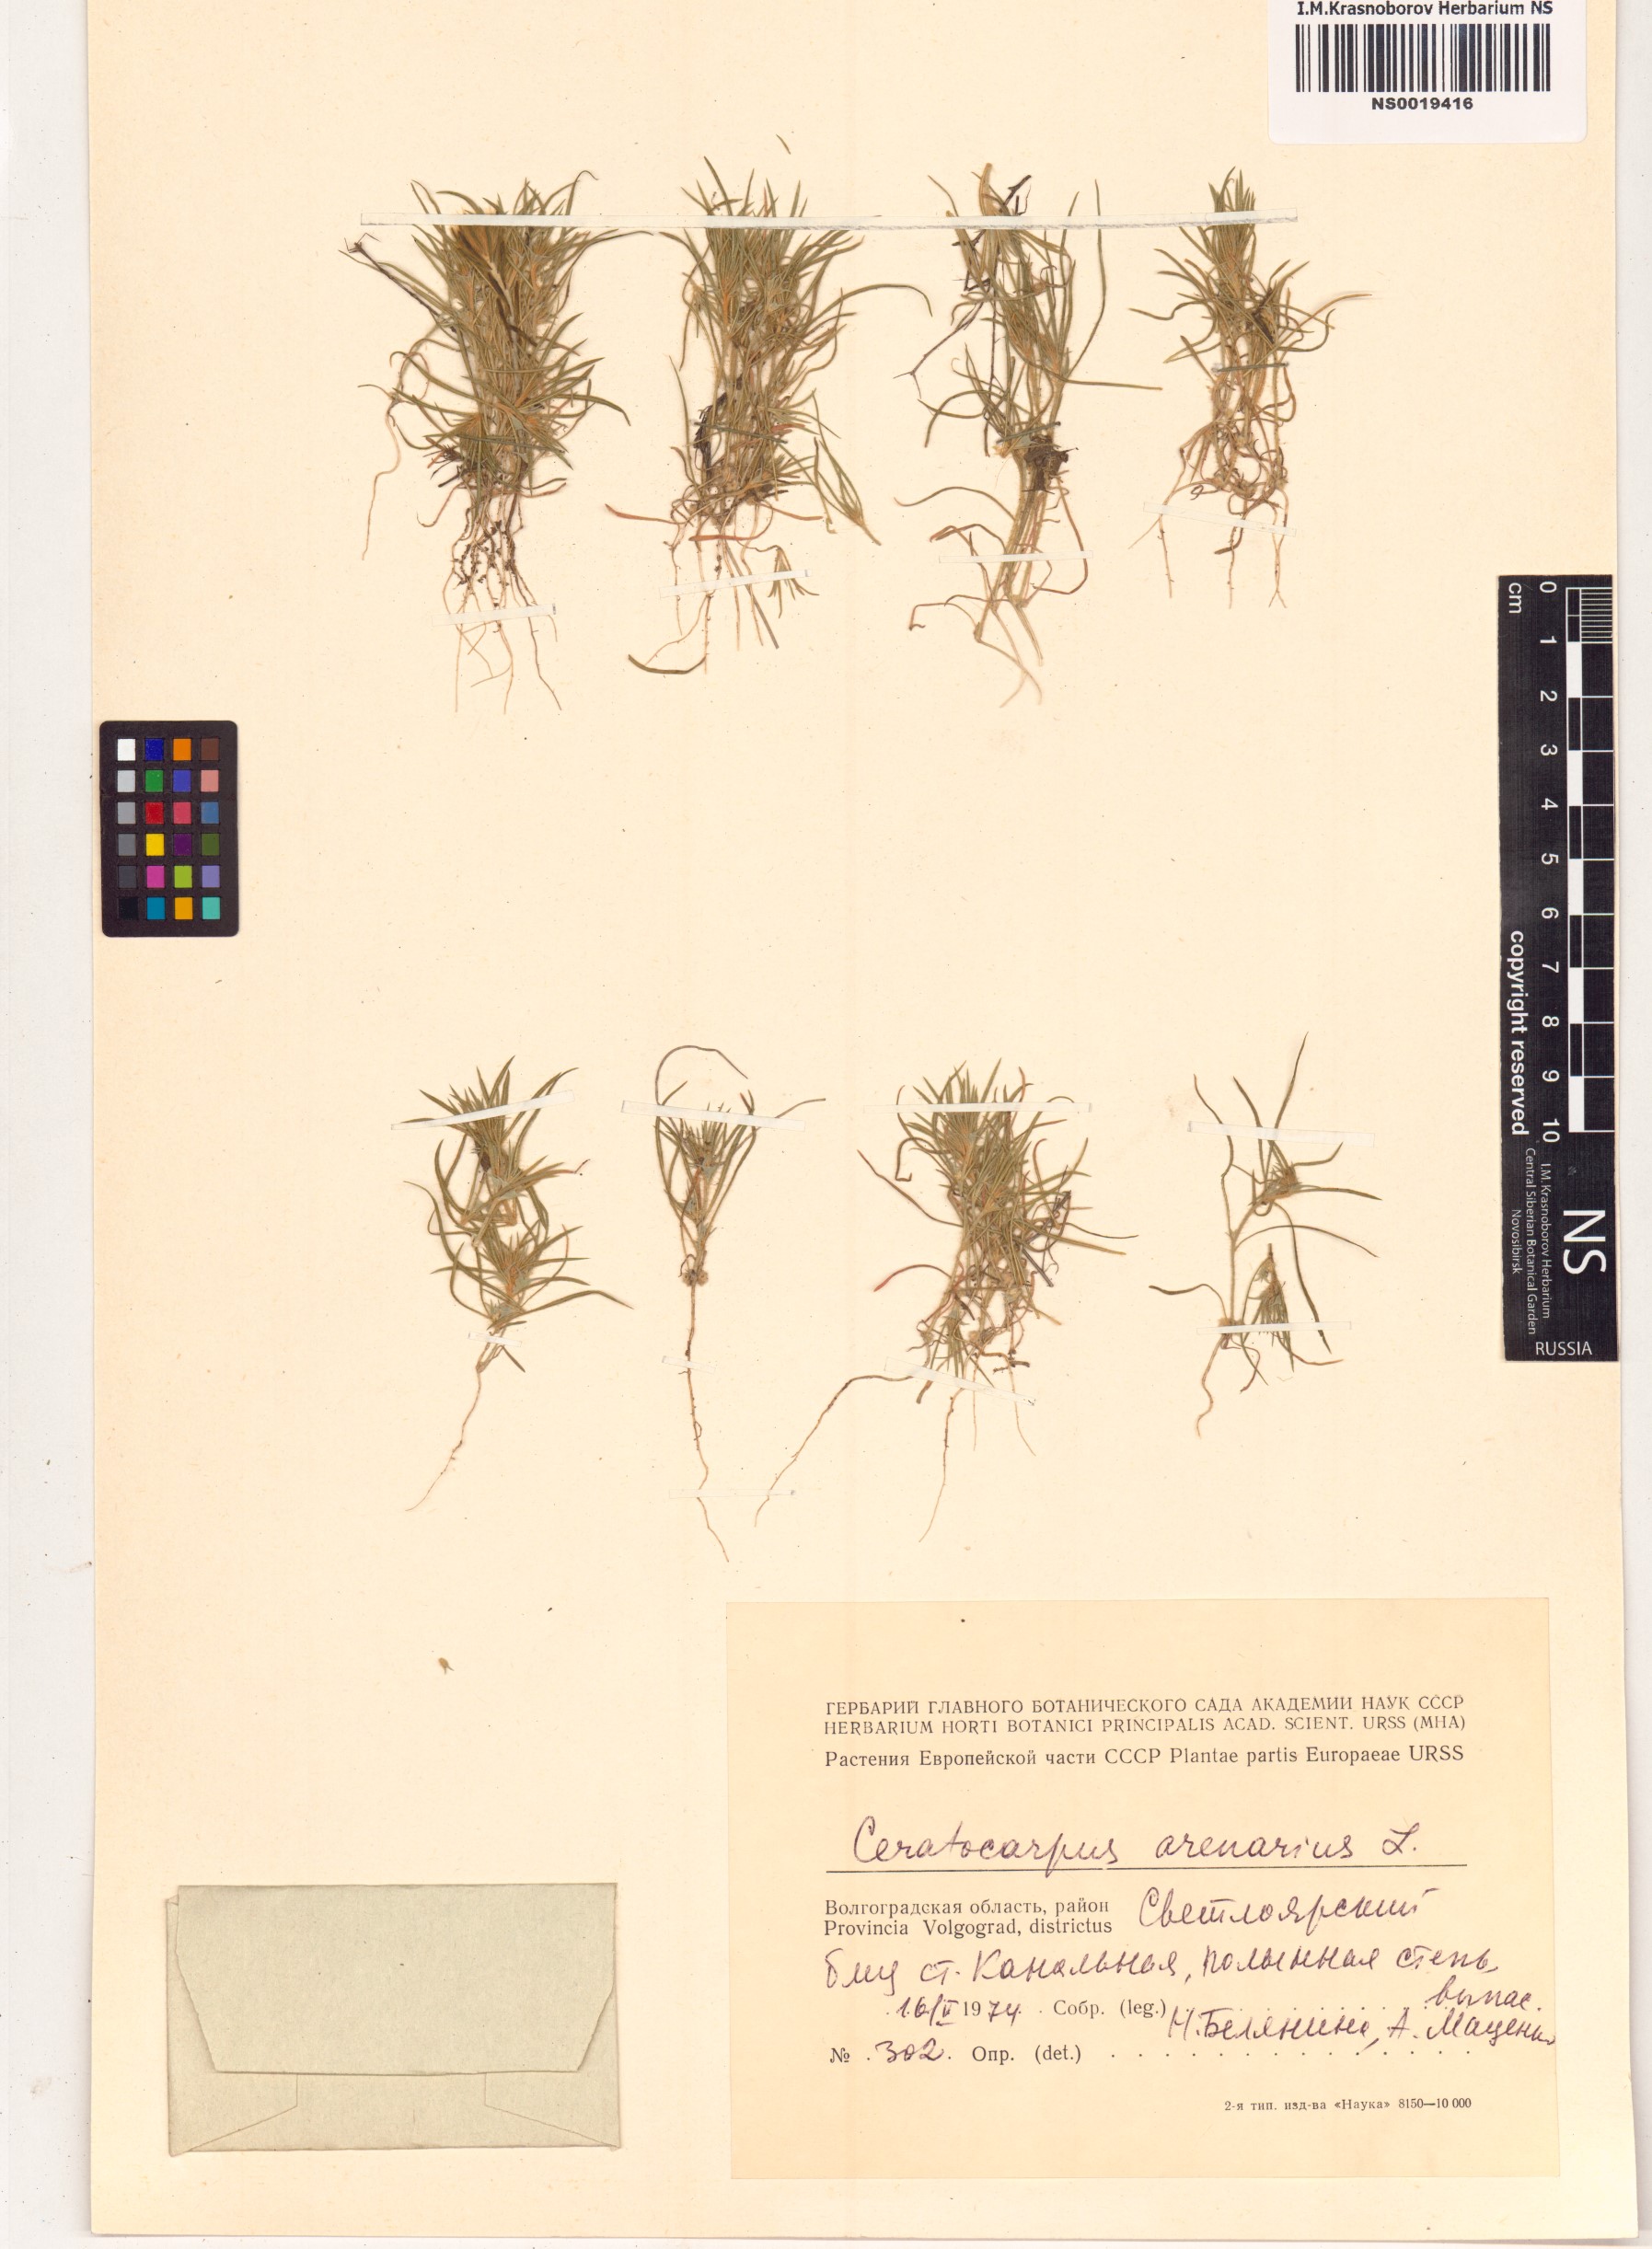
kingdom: Plantae
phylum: Tracheophyta
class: Magnoliopsida
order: Caryophyllales
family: Amaranthaceae
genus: Ceratocarpus
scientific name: Ceratocarpus arenarius
